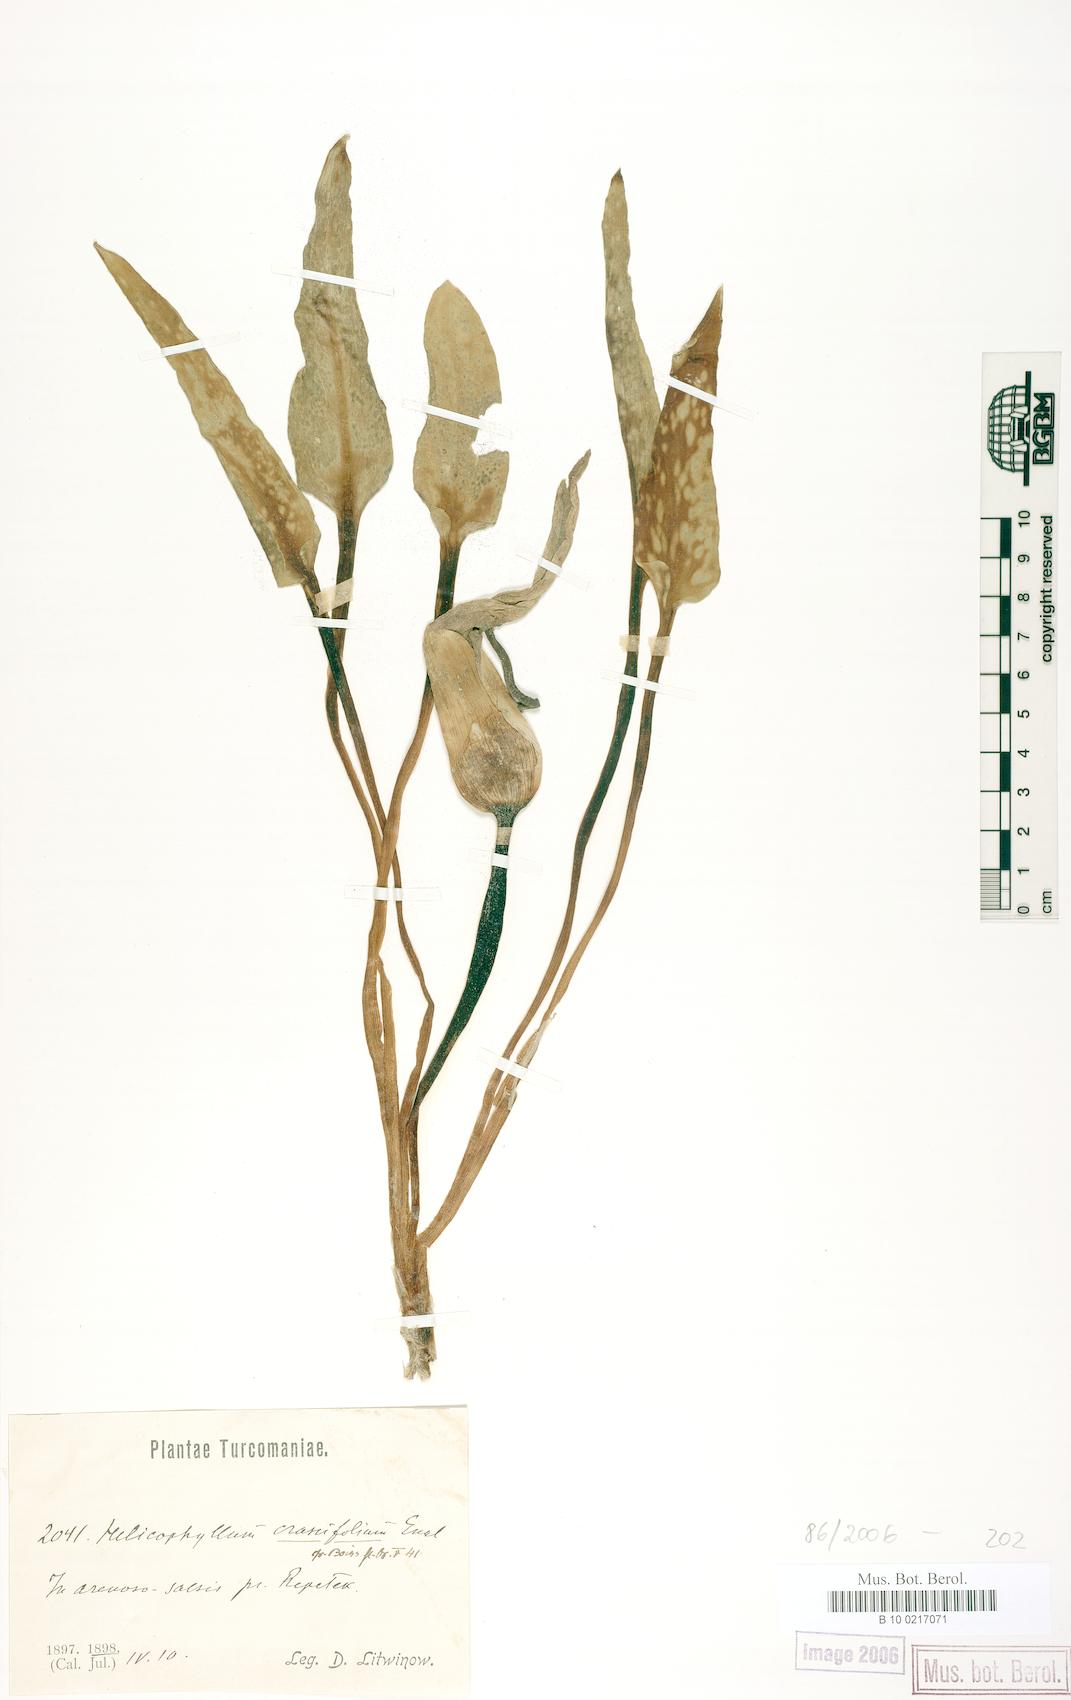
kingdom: Plantae
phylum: Tracheophyta
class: Liliopsida
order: Alismatales
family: Araceae
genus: Eminium
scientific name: Eminium lehmannii
